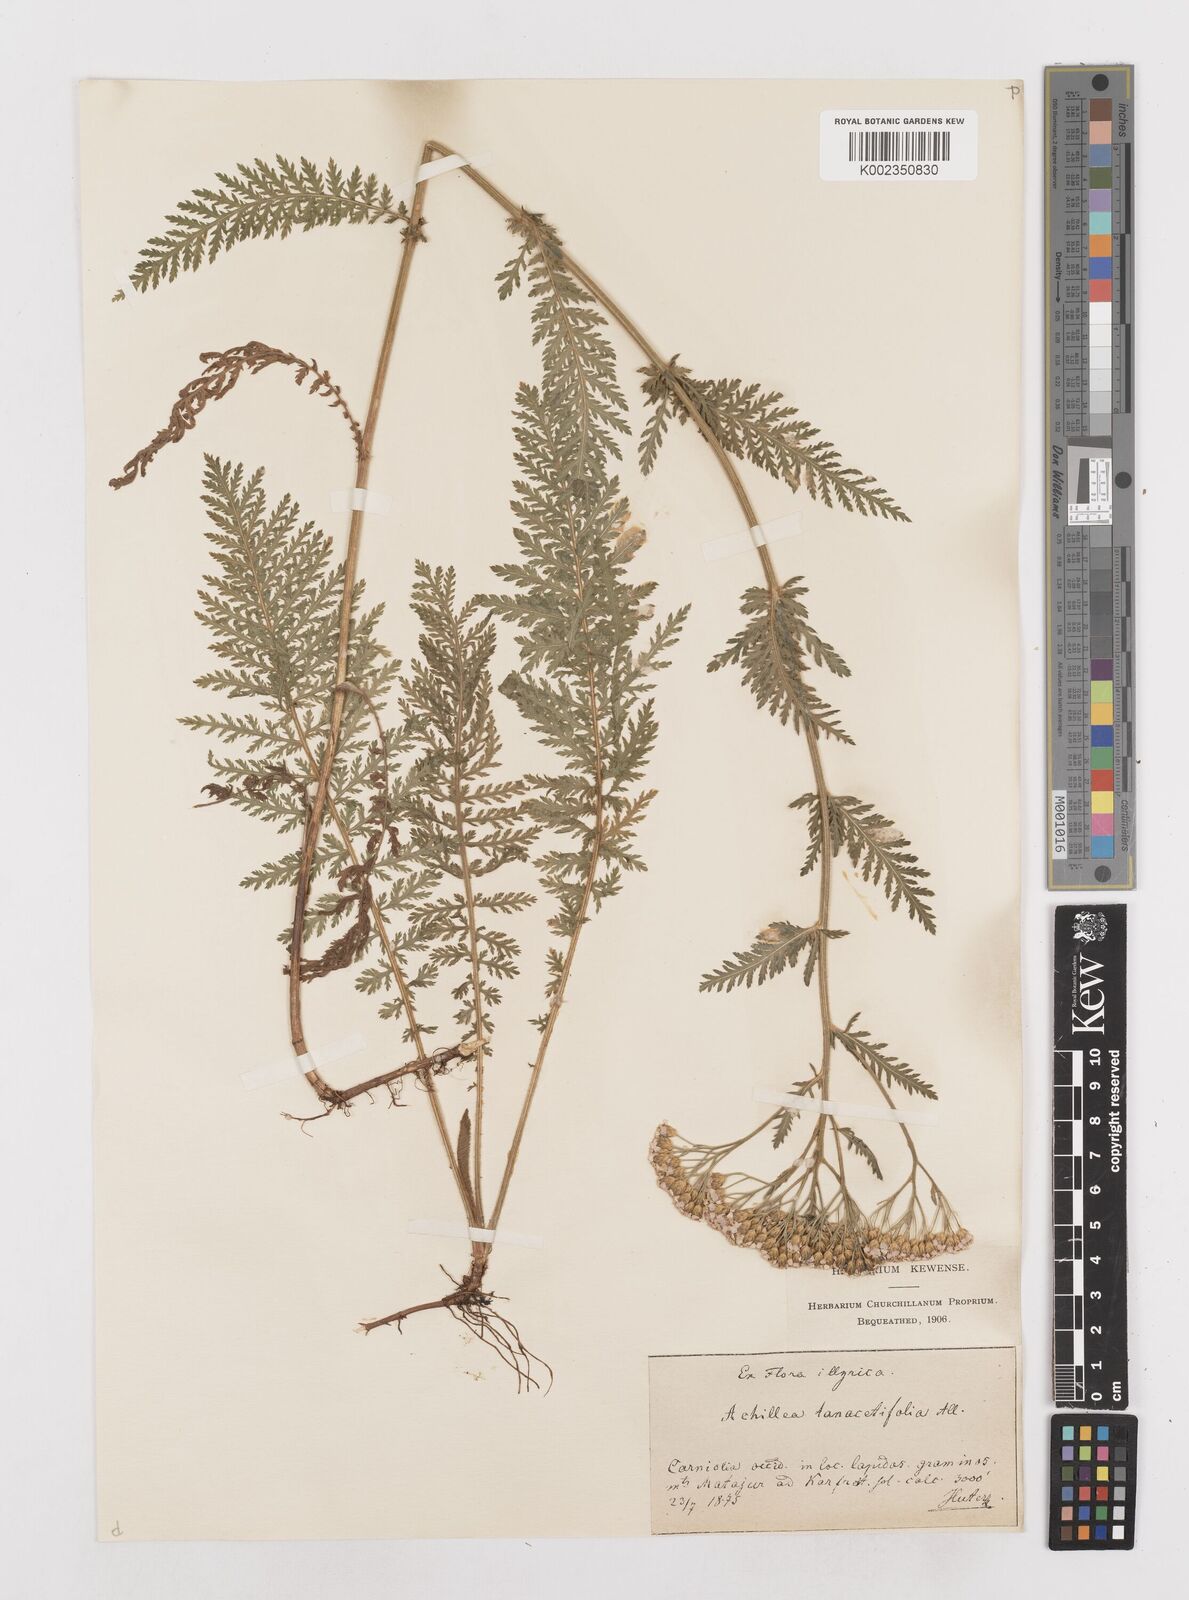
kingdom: Plantae
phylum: Tracheophyta
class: Magnoliopsida
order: Asterales
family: Asteraceae
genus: Achillea
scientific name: Achillea distans
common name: Tall yarrow
